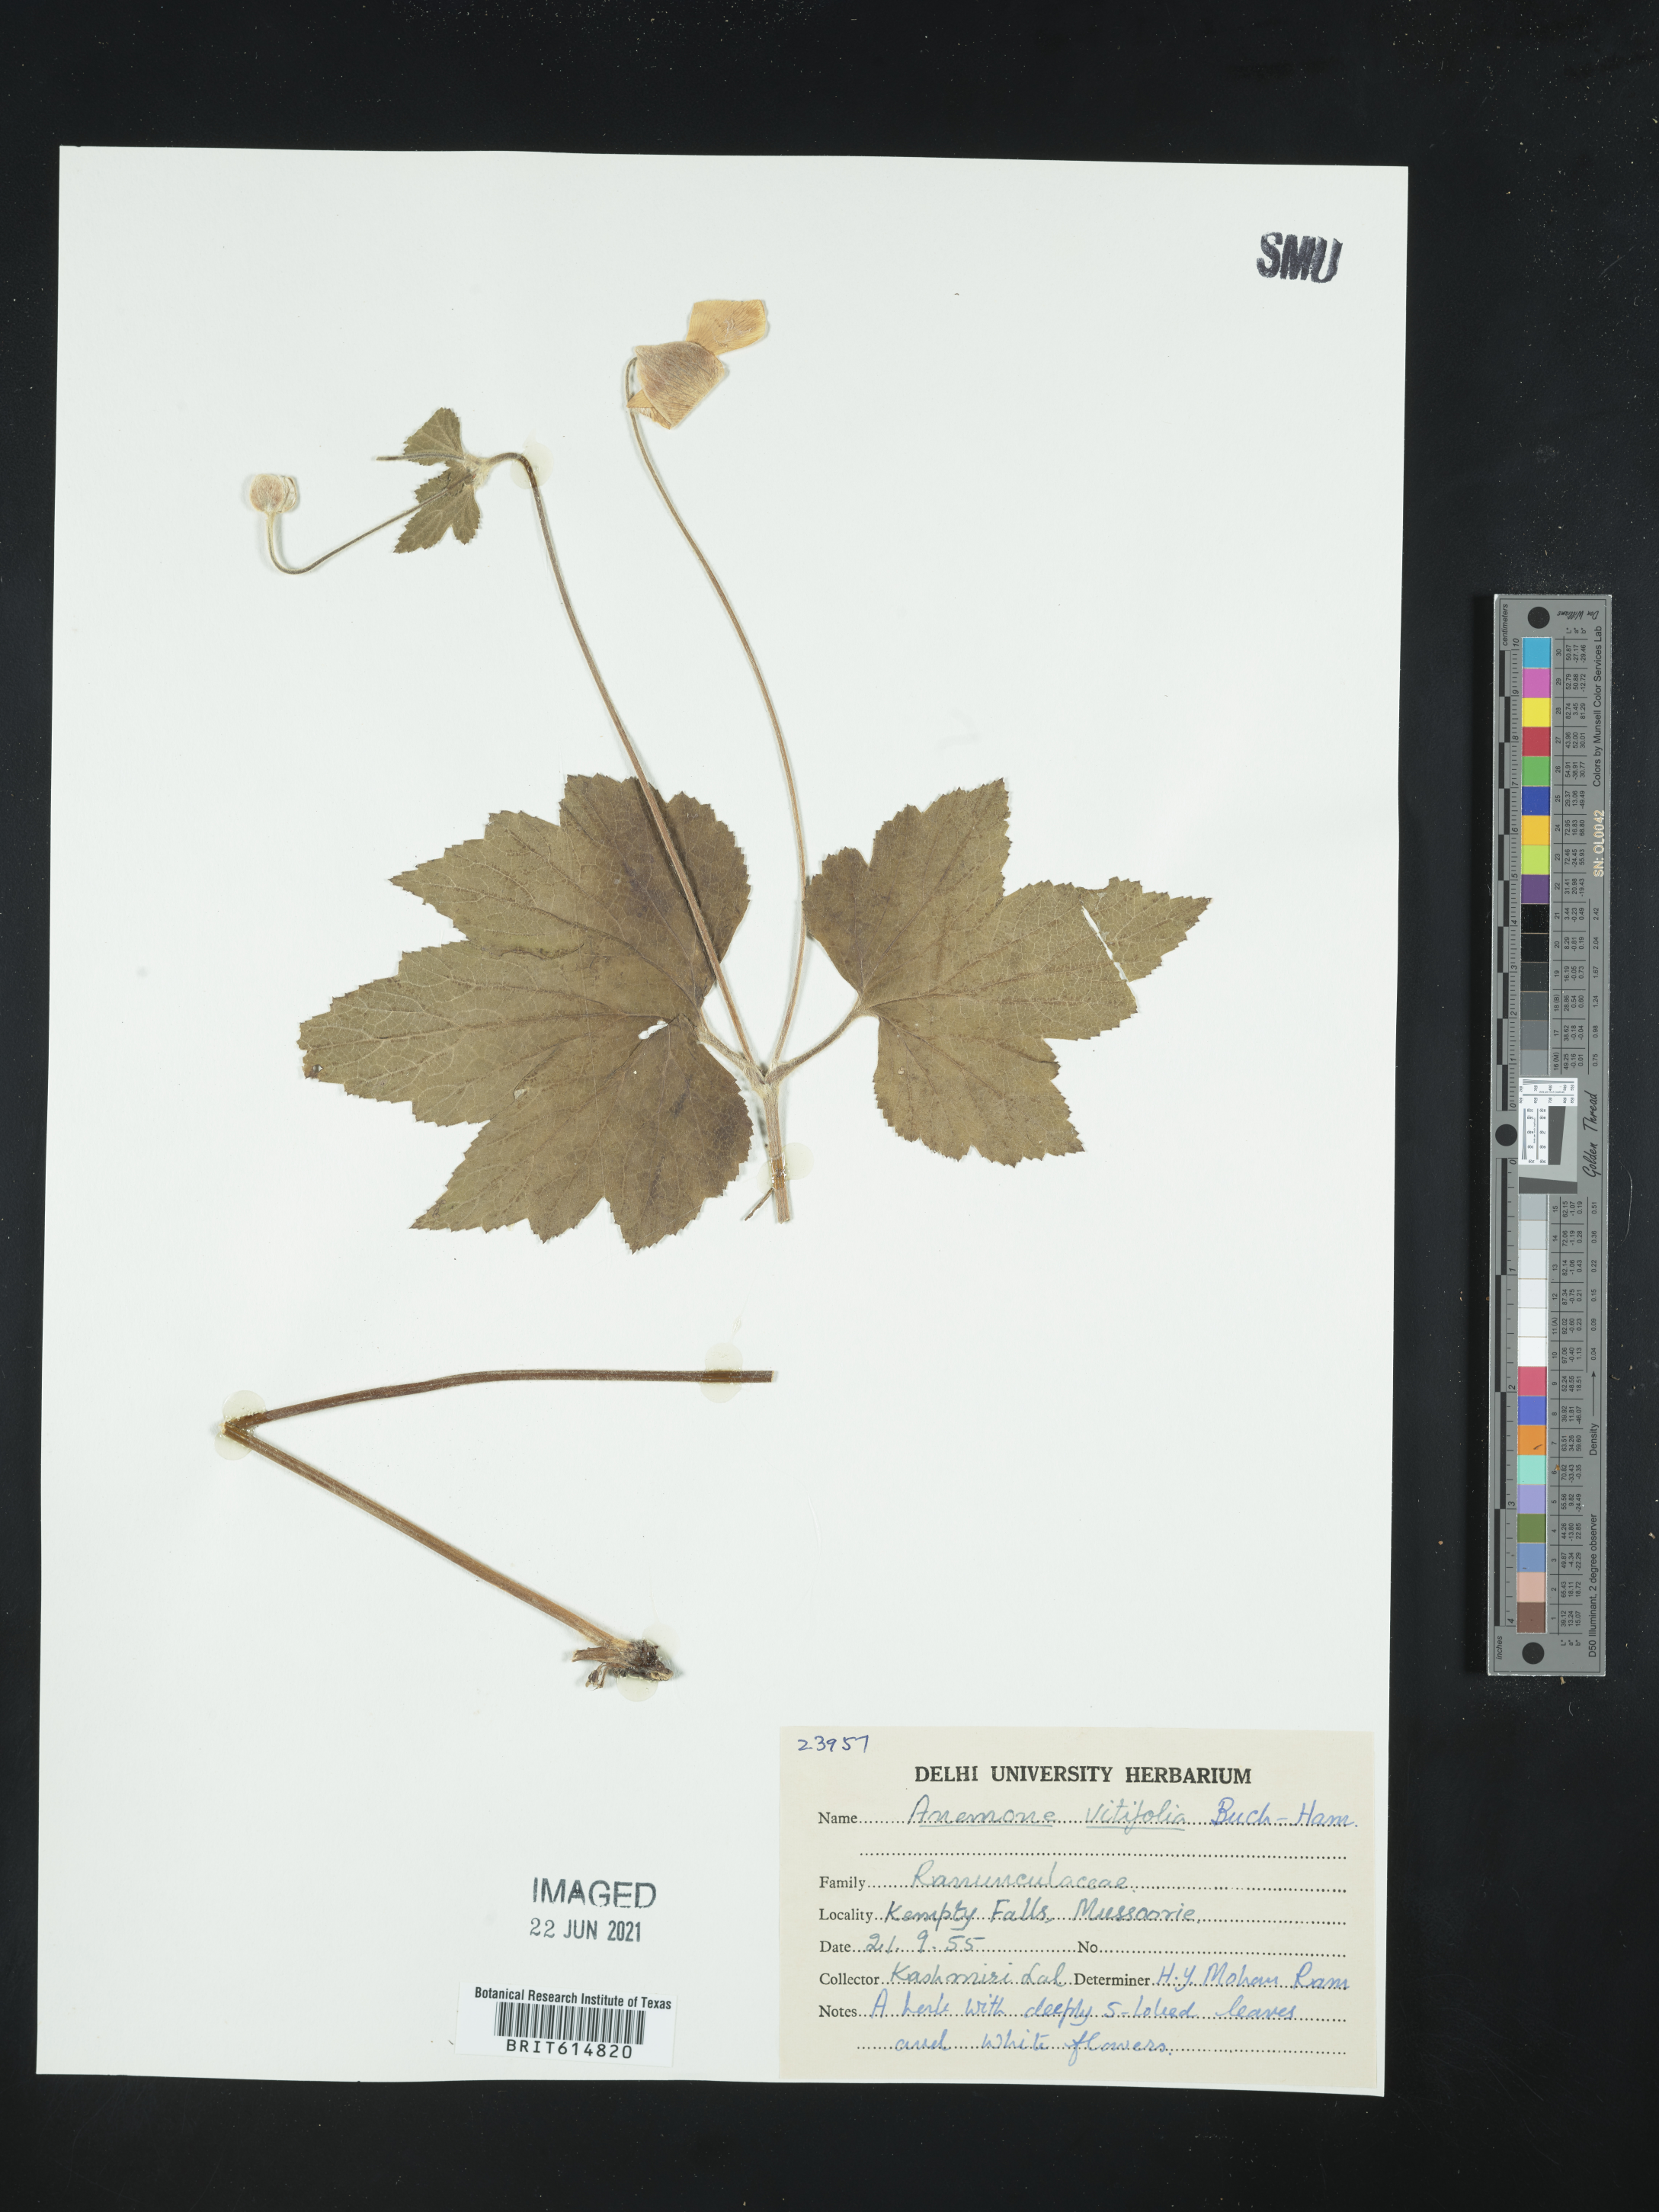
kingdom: Plantae
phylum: Tracheophyta
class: Magnoliopsida
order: Ranunculales
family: Ranunculaceae
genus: Eriocapitella
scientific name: Eriocapitella vitifolia
